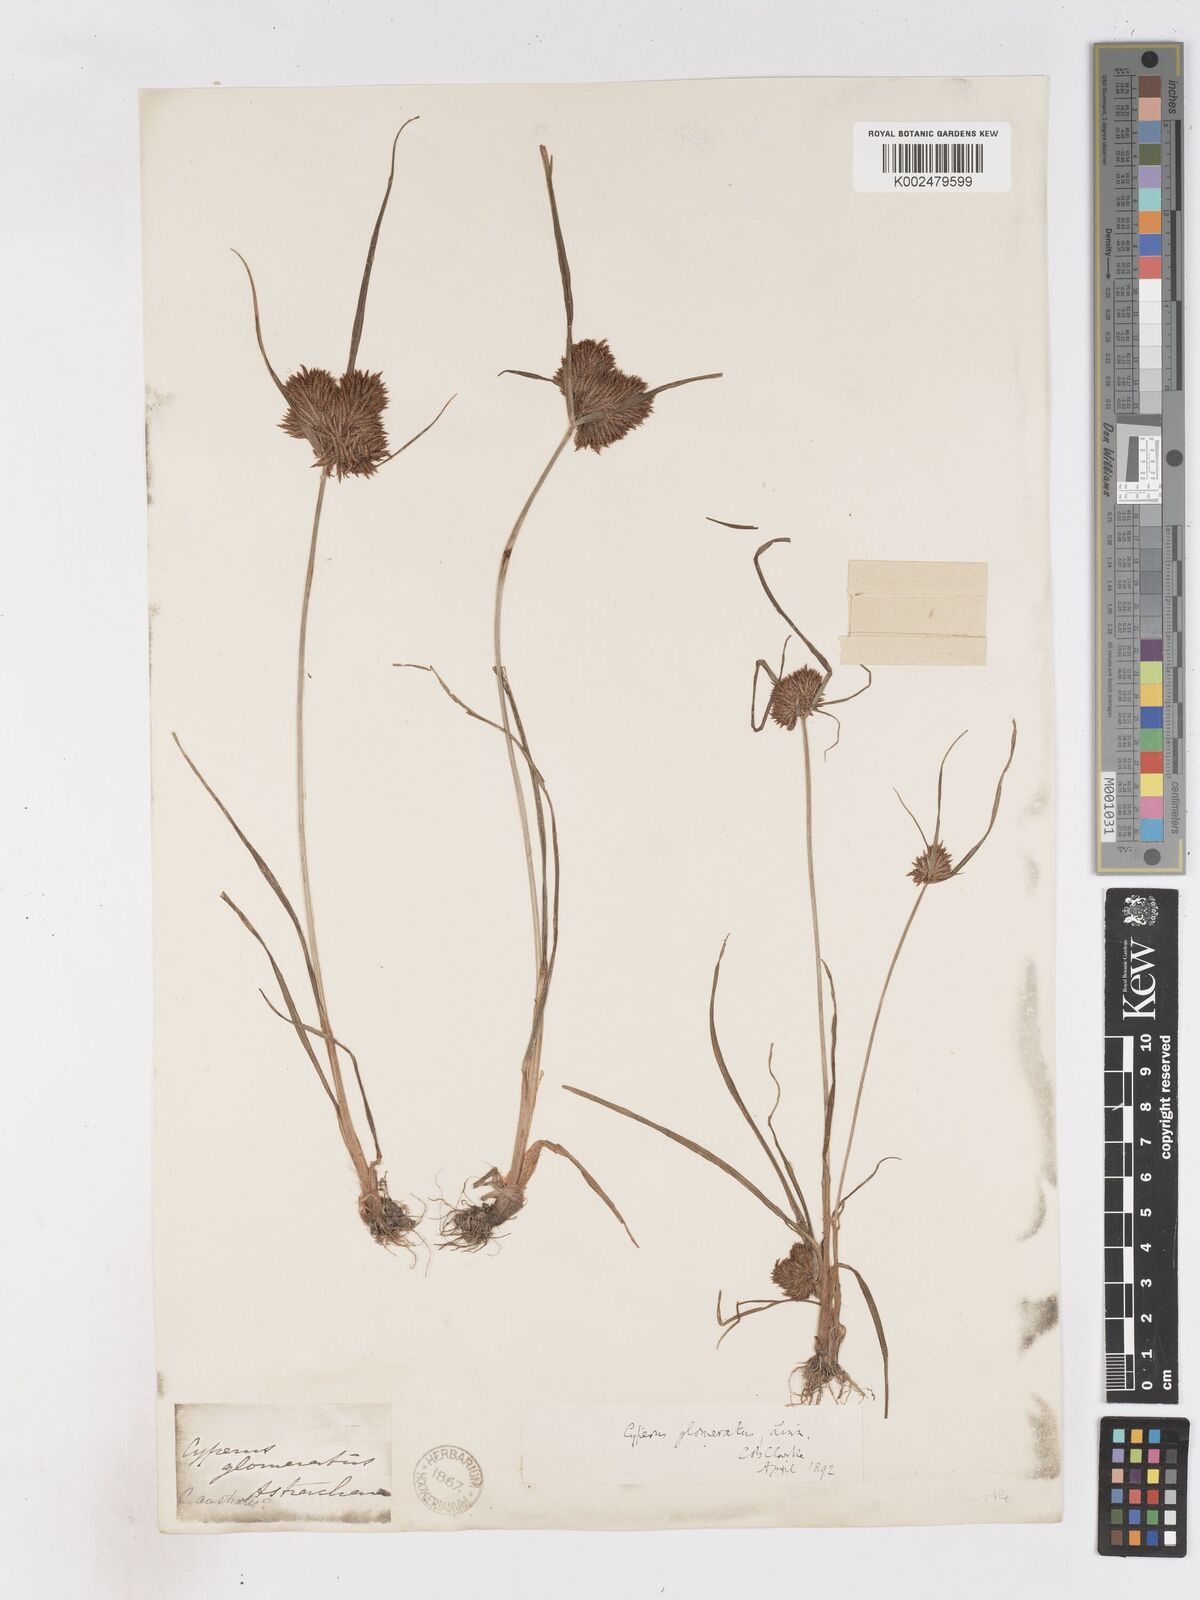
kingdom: Plantae
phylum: Tracheophyta
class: Liliopsida
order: Poales
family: Cyperaceae
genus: Cyperus
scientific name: Cyperus glomeratus
